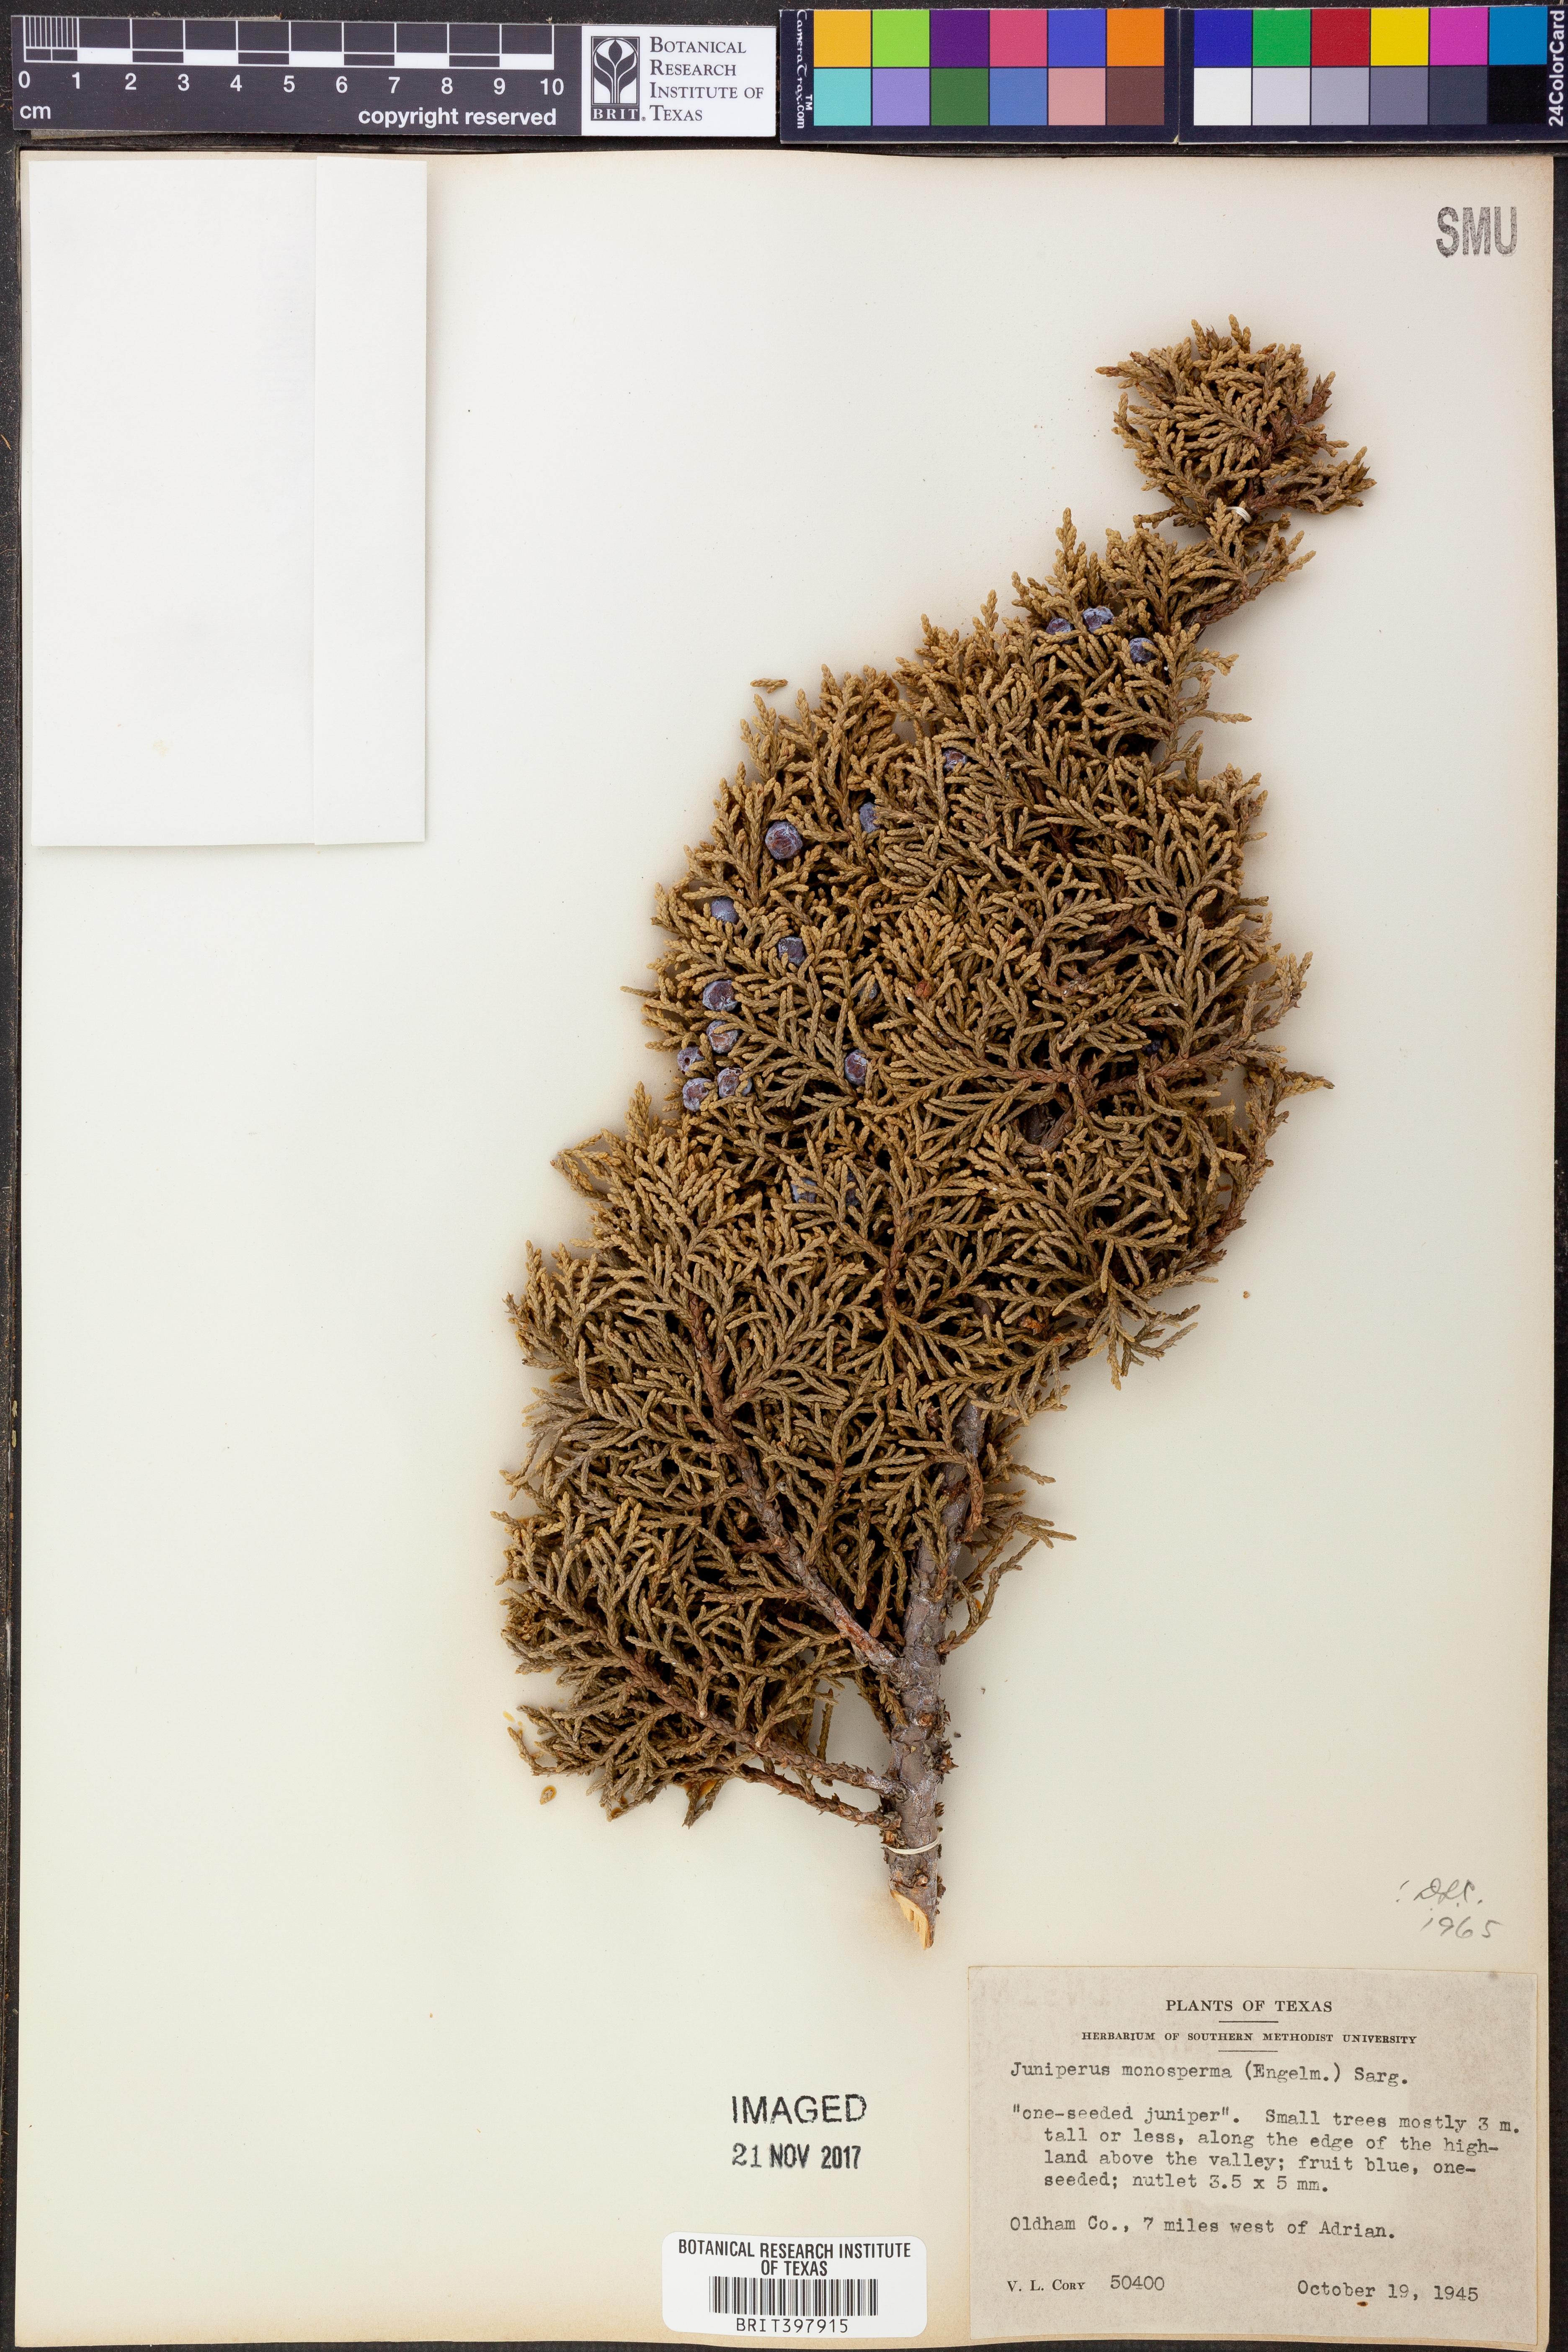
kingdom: Plantae
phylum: Tracheophyta
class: Pinopsida
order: Pinales
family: Cupressaceae
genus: Juniperus
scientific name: Juniperus monosperma
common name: One-seed juniper
